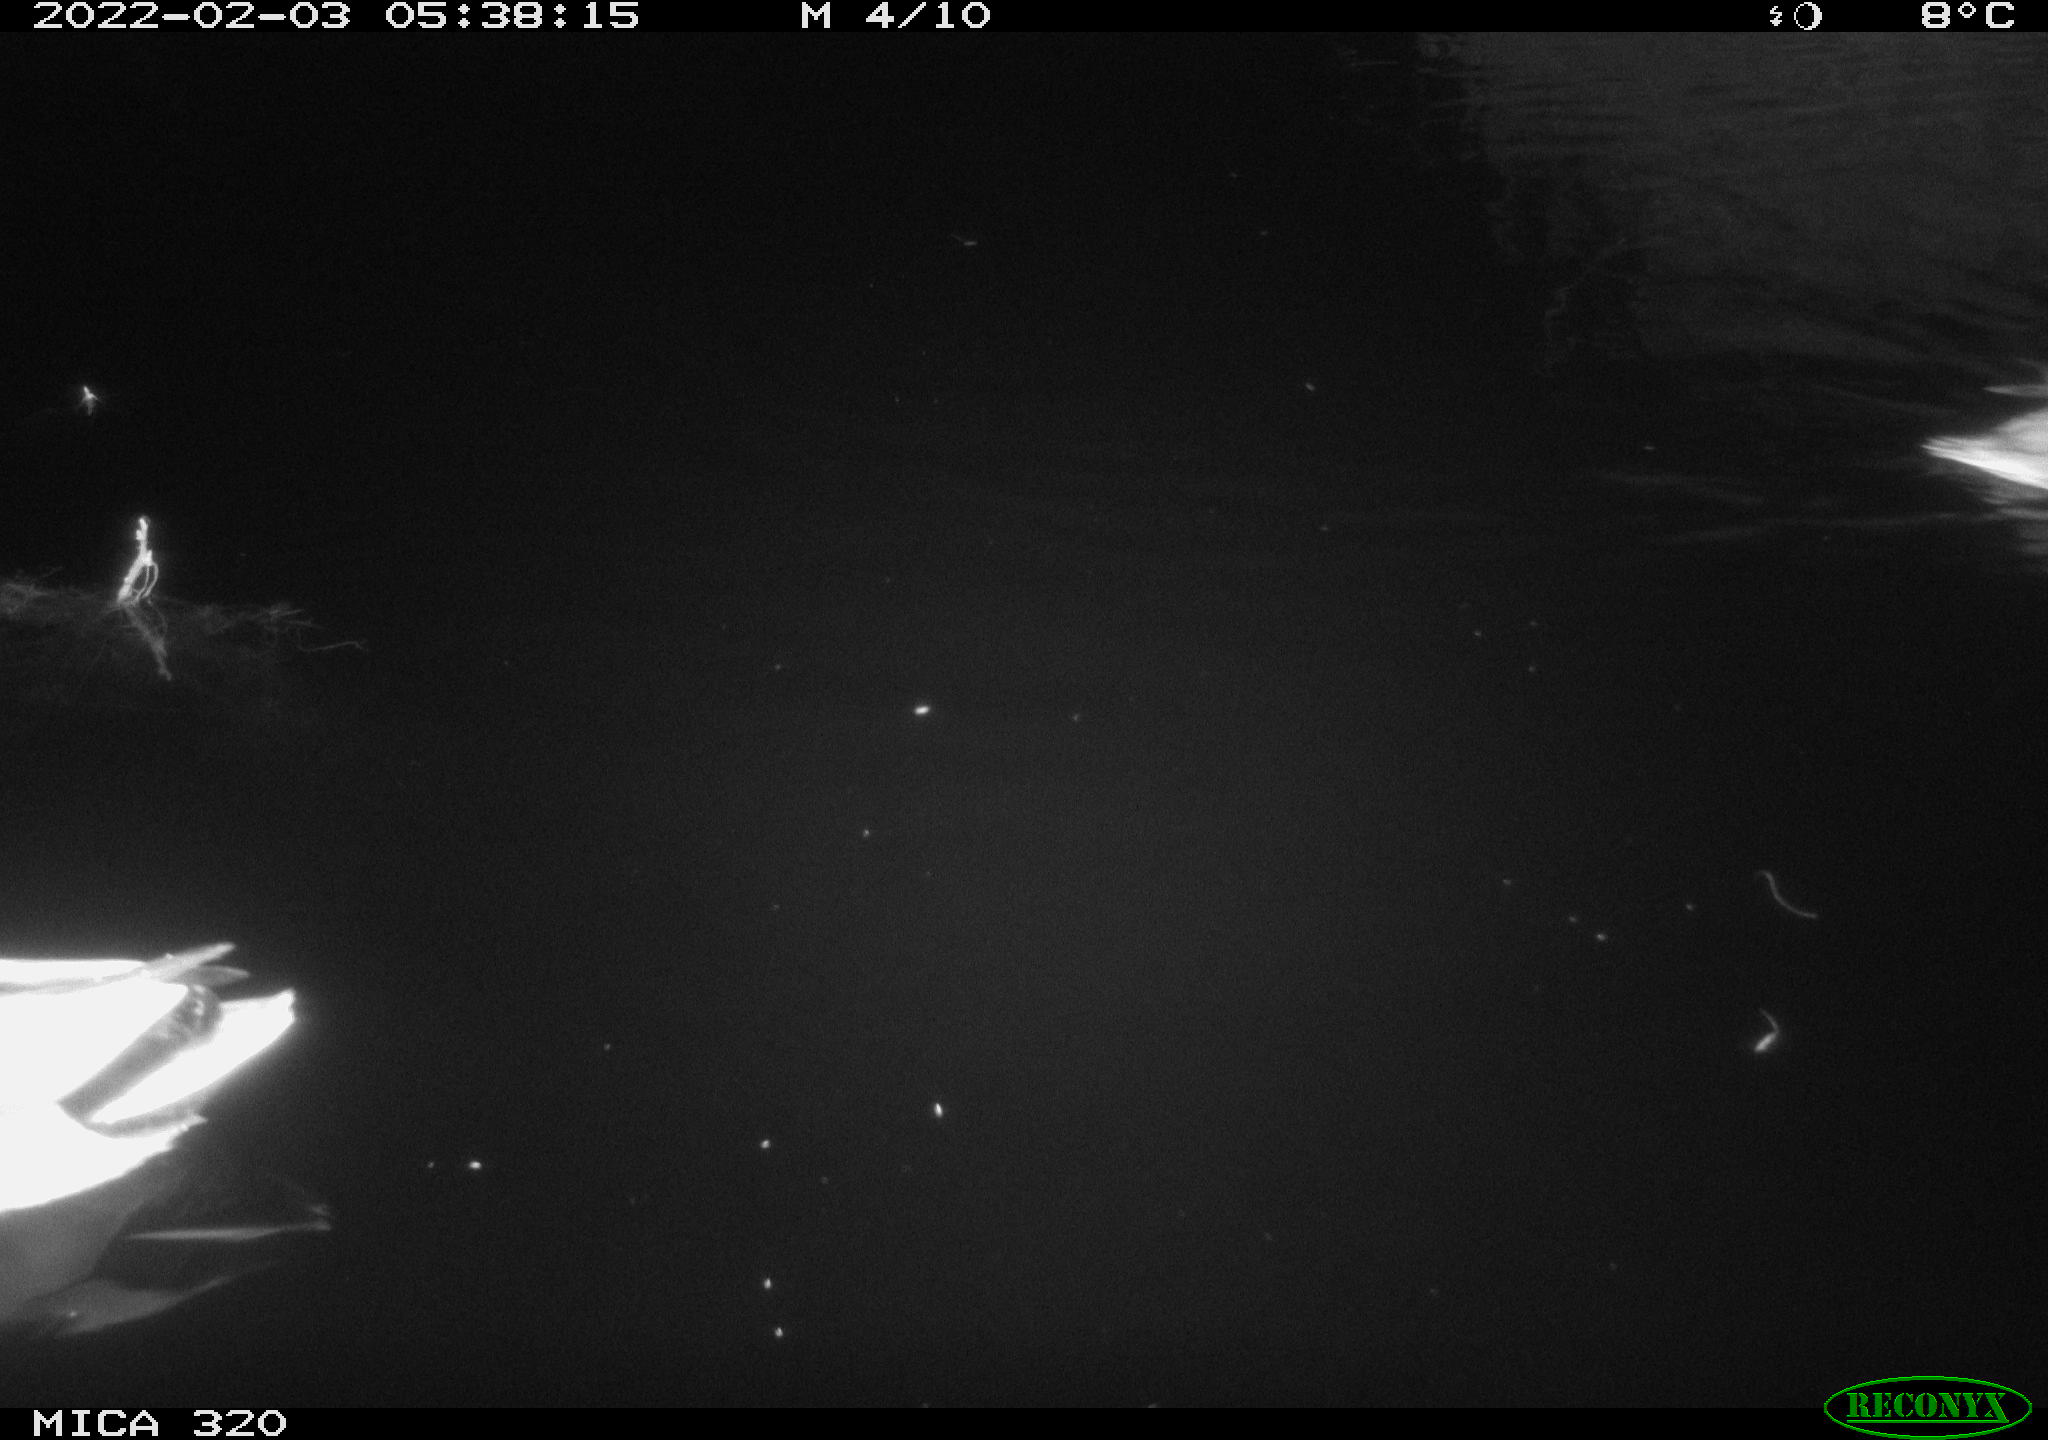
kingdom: Animalia
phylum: Chordata
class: Aves
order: Anseriformes
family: Anatidae
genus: Anas
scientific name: Anas
